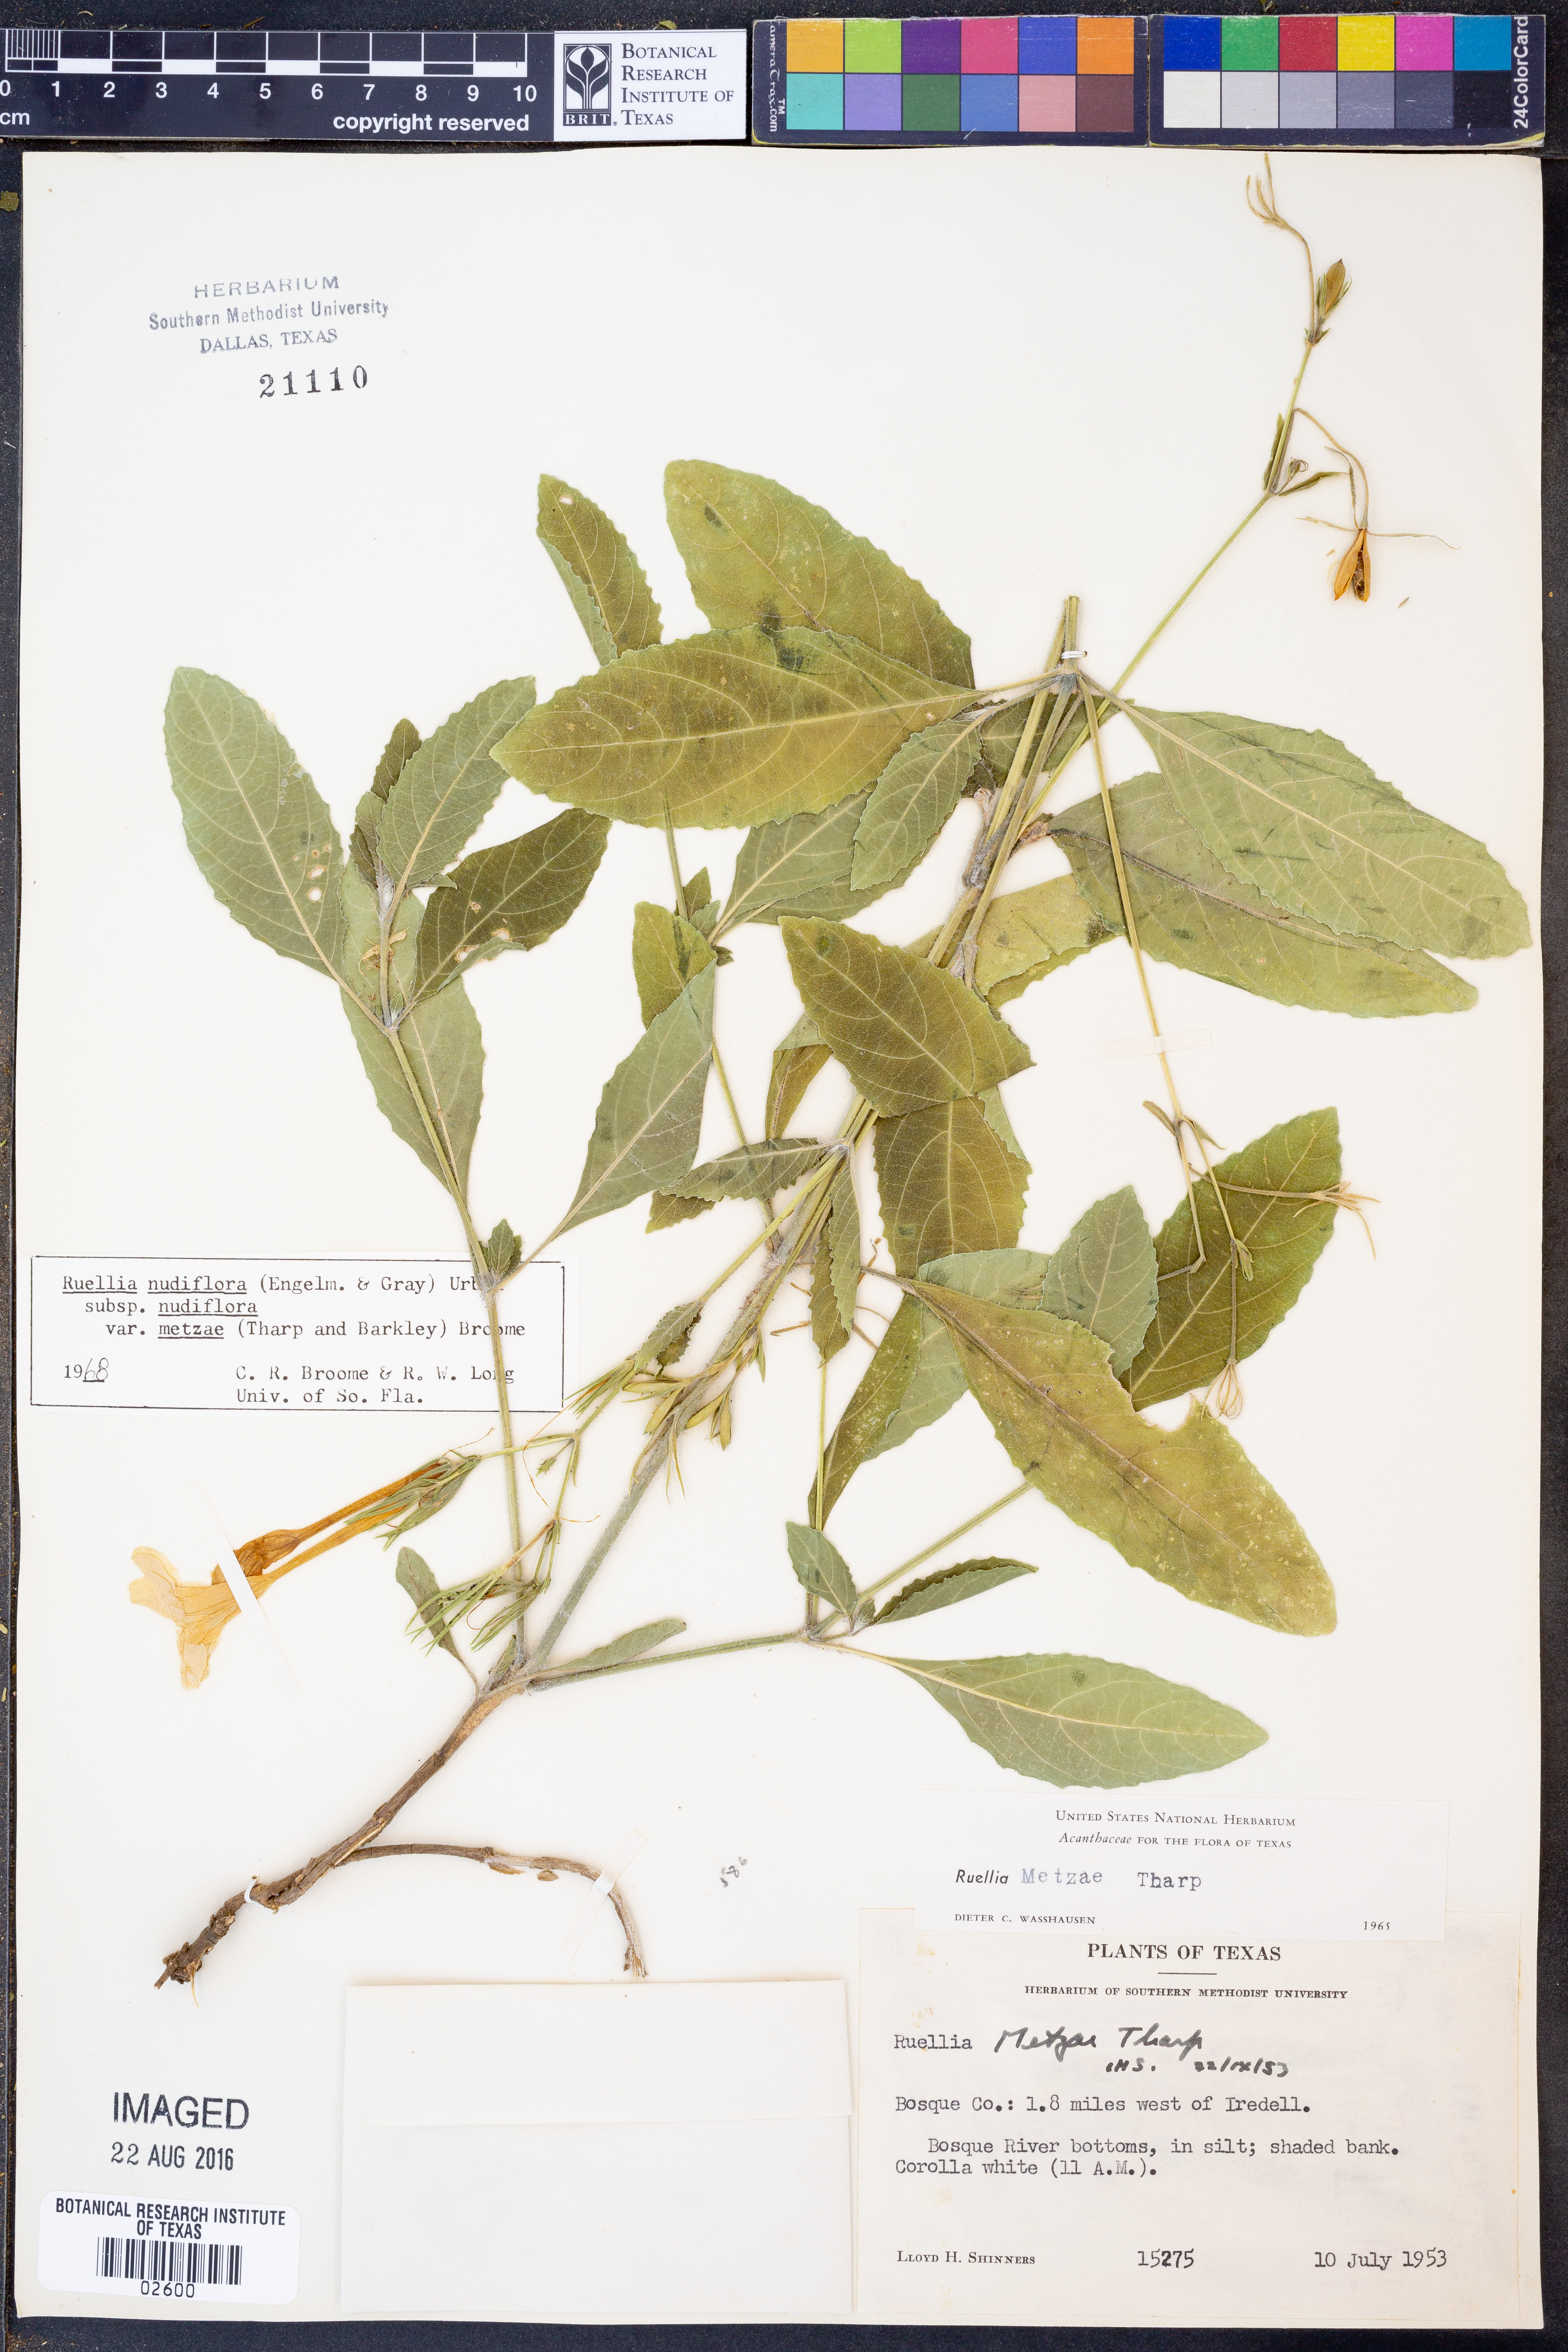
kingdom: Plantae
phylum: Tracheophyta
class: Magnoliopsida
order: Lamiales
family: Acanthaceae
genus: Ruellia
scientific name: Ruellia ciliatiflora
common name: Hairyflower wild petunia
